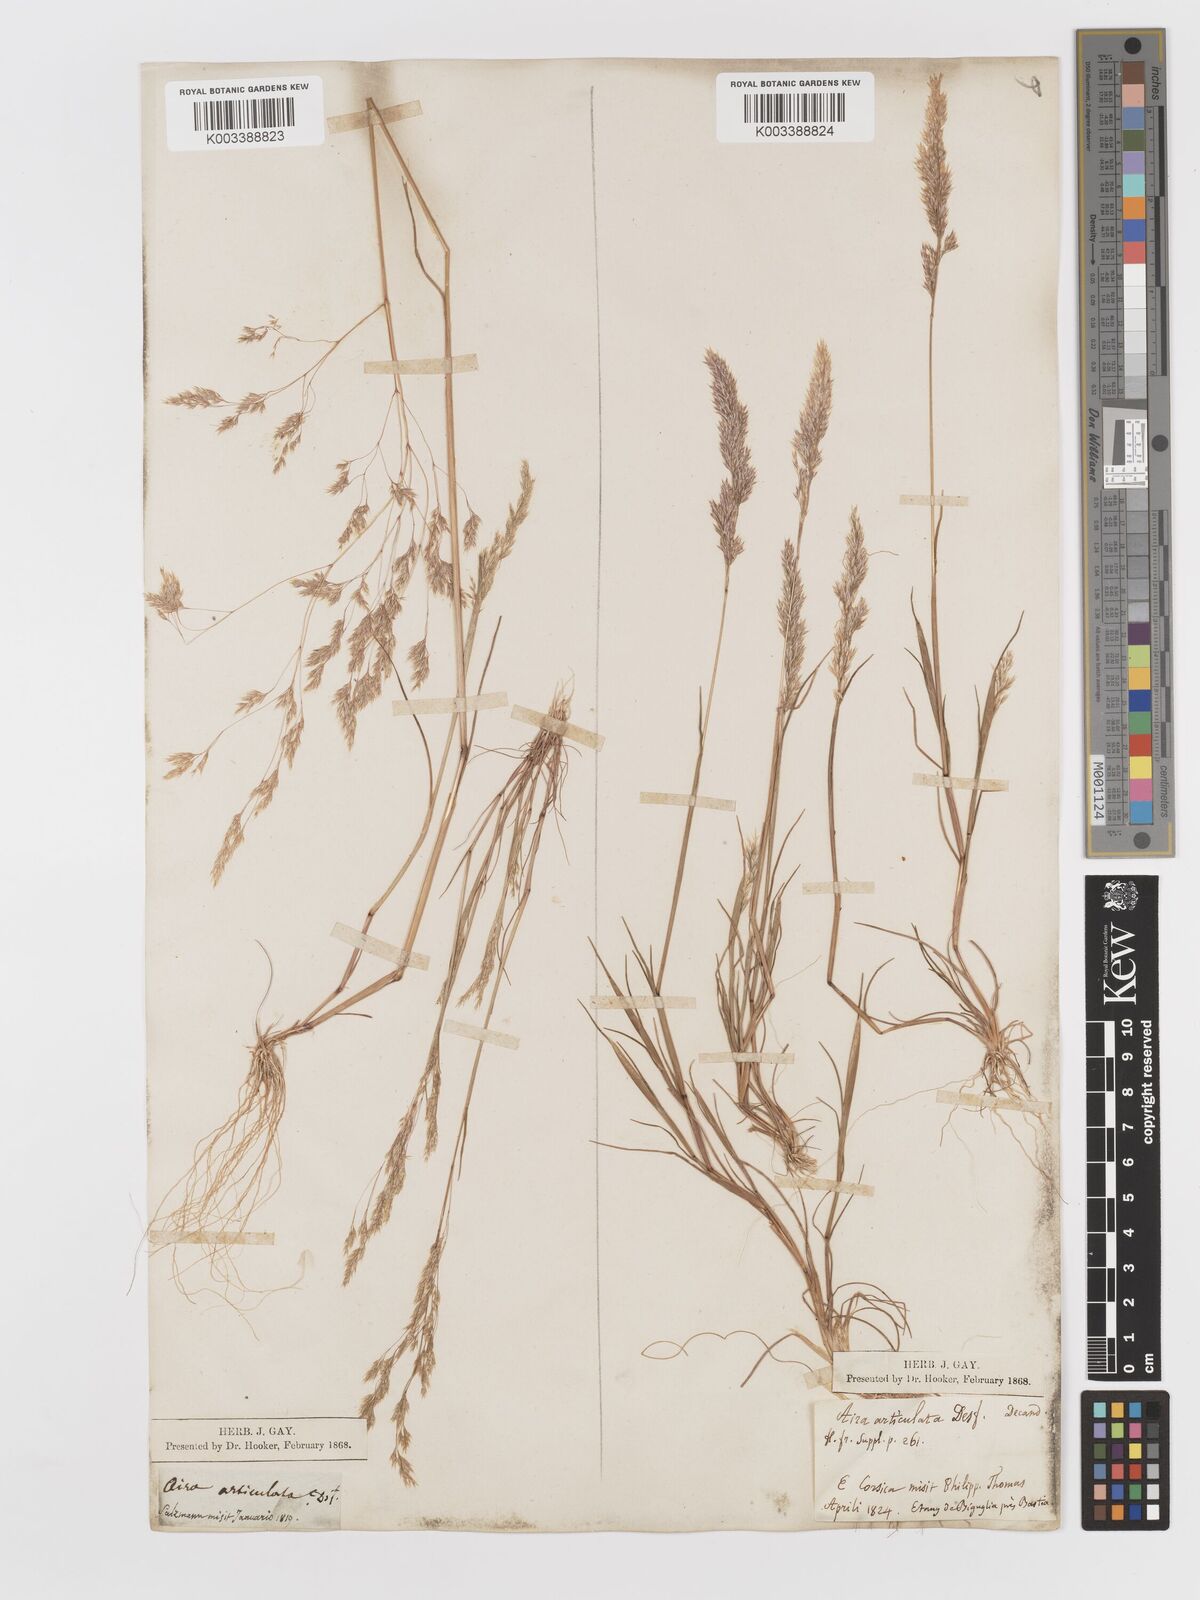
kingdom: Plantae
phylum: Tracheophyta
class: Liliopsida
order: Poales
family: Poaceae
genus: Corynephorus
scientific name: Corynephorus divaricatus
